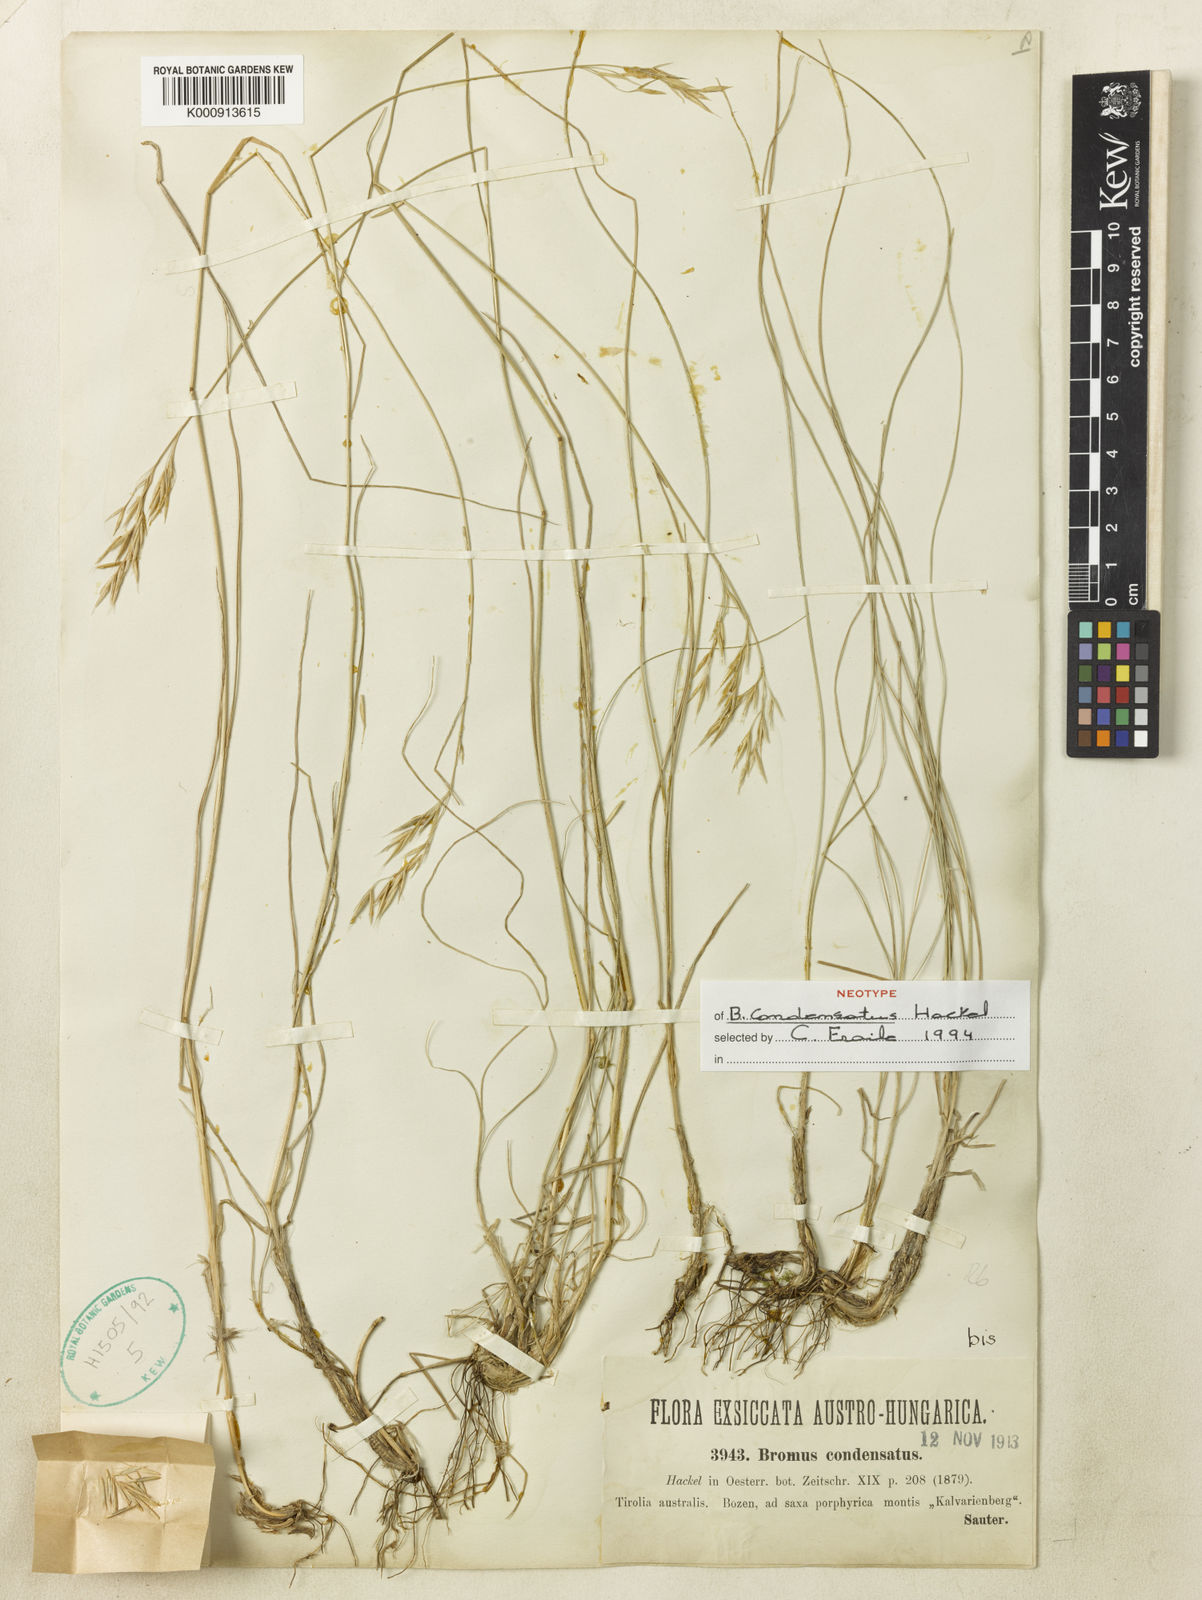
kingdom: Plantae
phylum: Tracheophyta
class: Liliopsida
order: Poales
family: Poaceae
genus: Bromus
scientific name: Bromus commutatus
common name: Meadow brome
